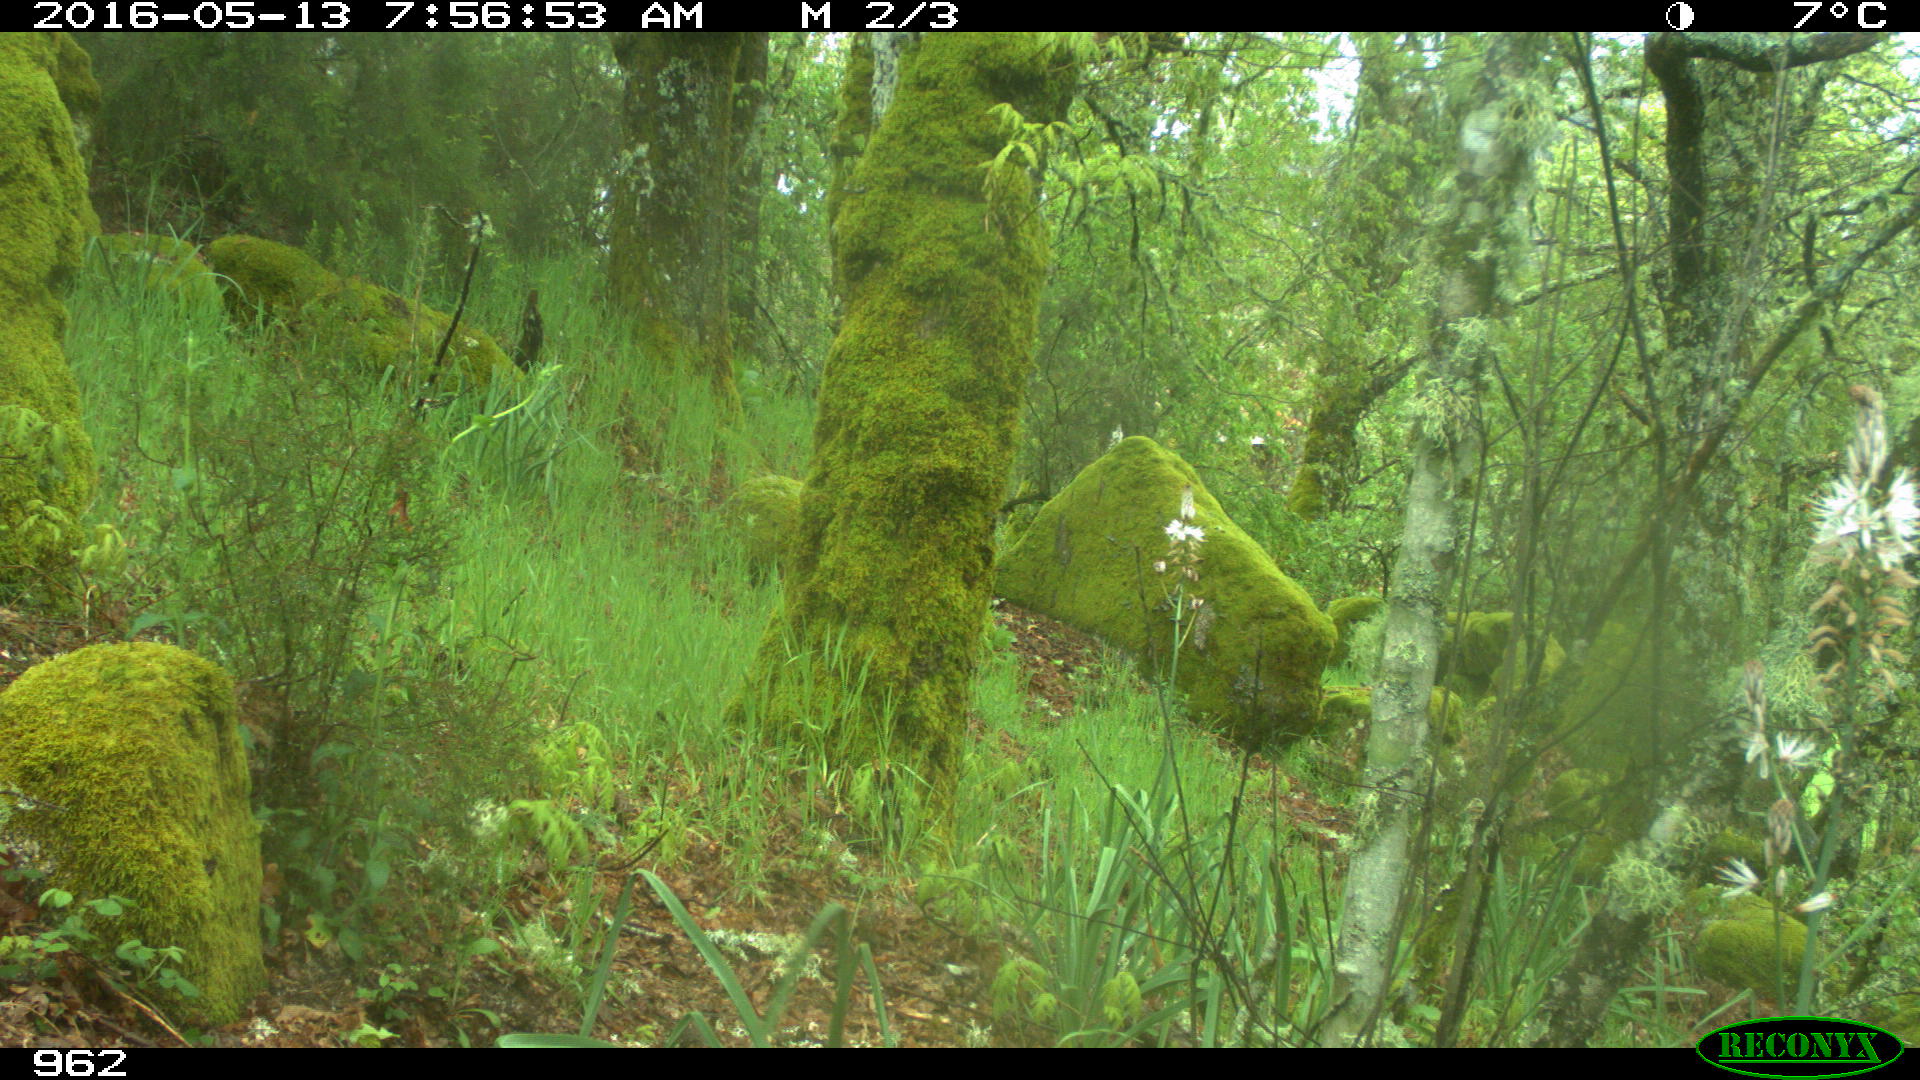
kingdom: Animalia
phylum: Chordata
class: Mammalia
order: Artiodactyla
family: Cervidae
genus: Capreolus
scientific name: Capreolus capreolus
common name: Western roe deer
